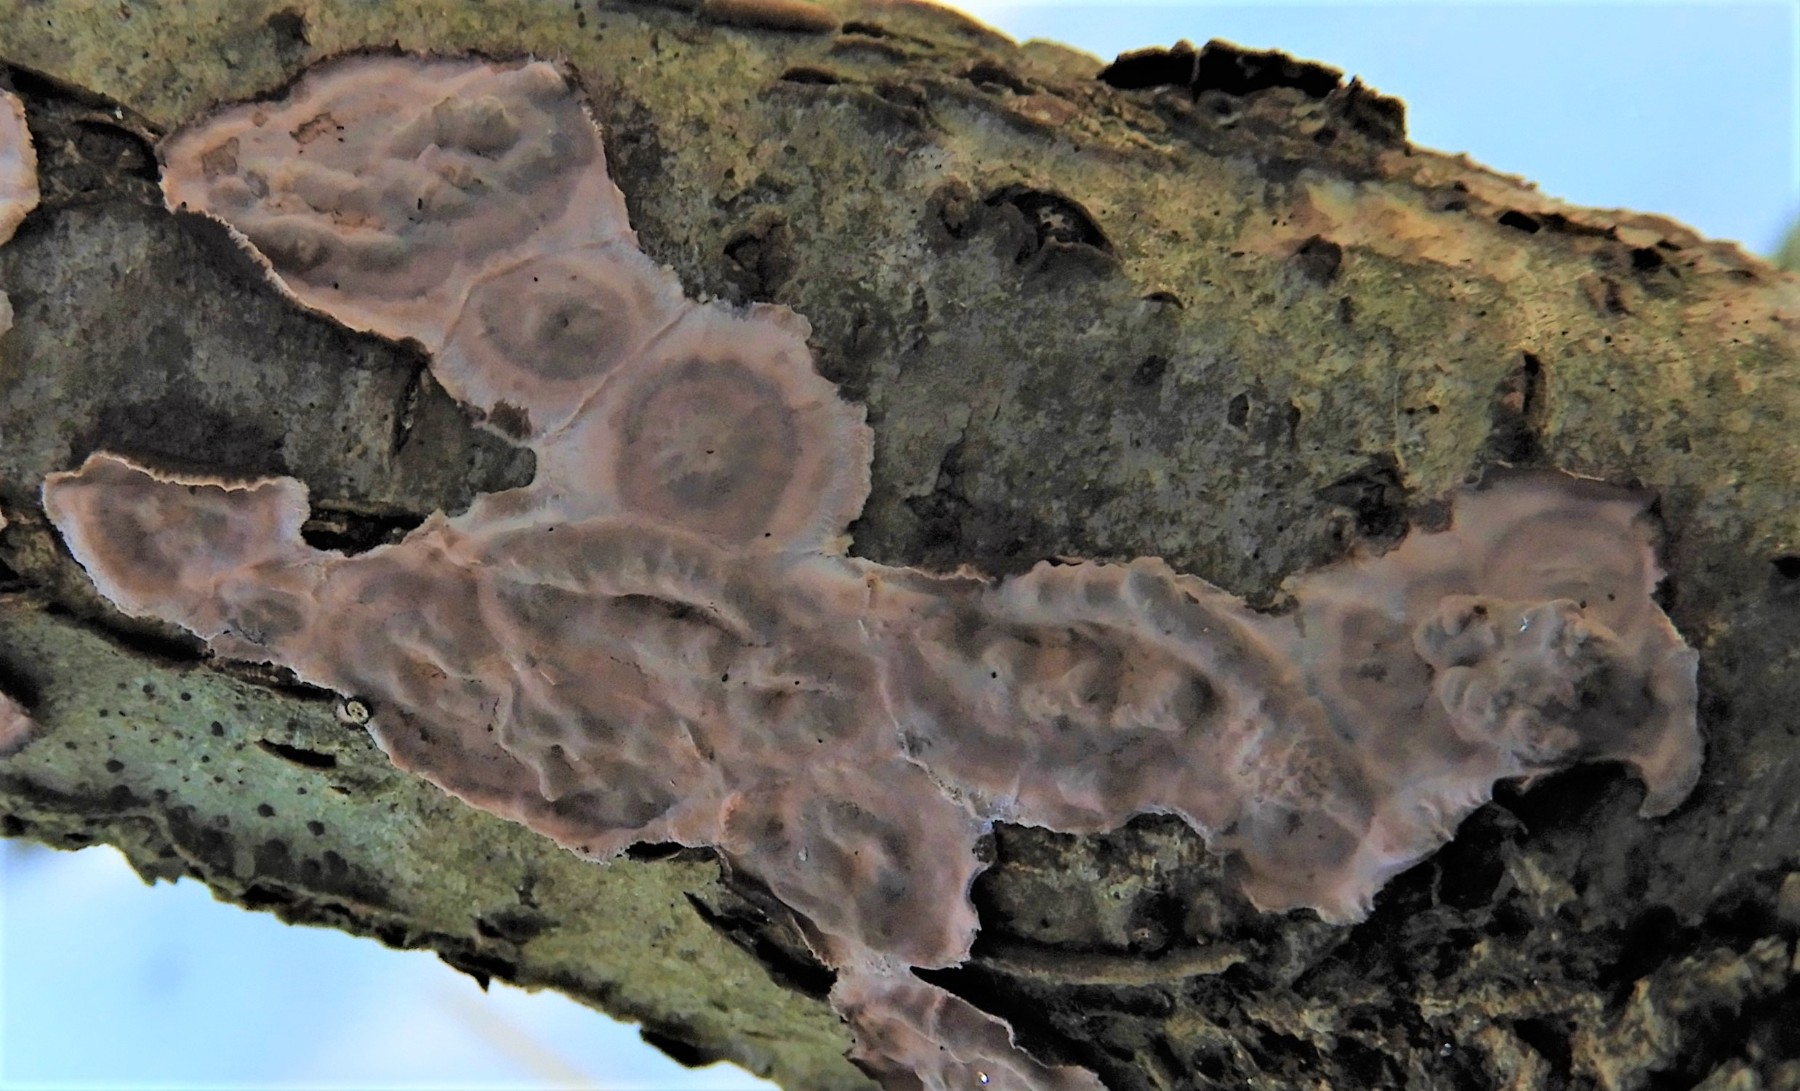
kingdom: Fungi
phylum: Basidiomycota
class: Agaricomycetes
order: Corticiales
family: Corticiaceae
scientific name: Corticiaceae
